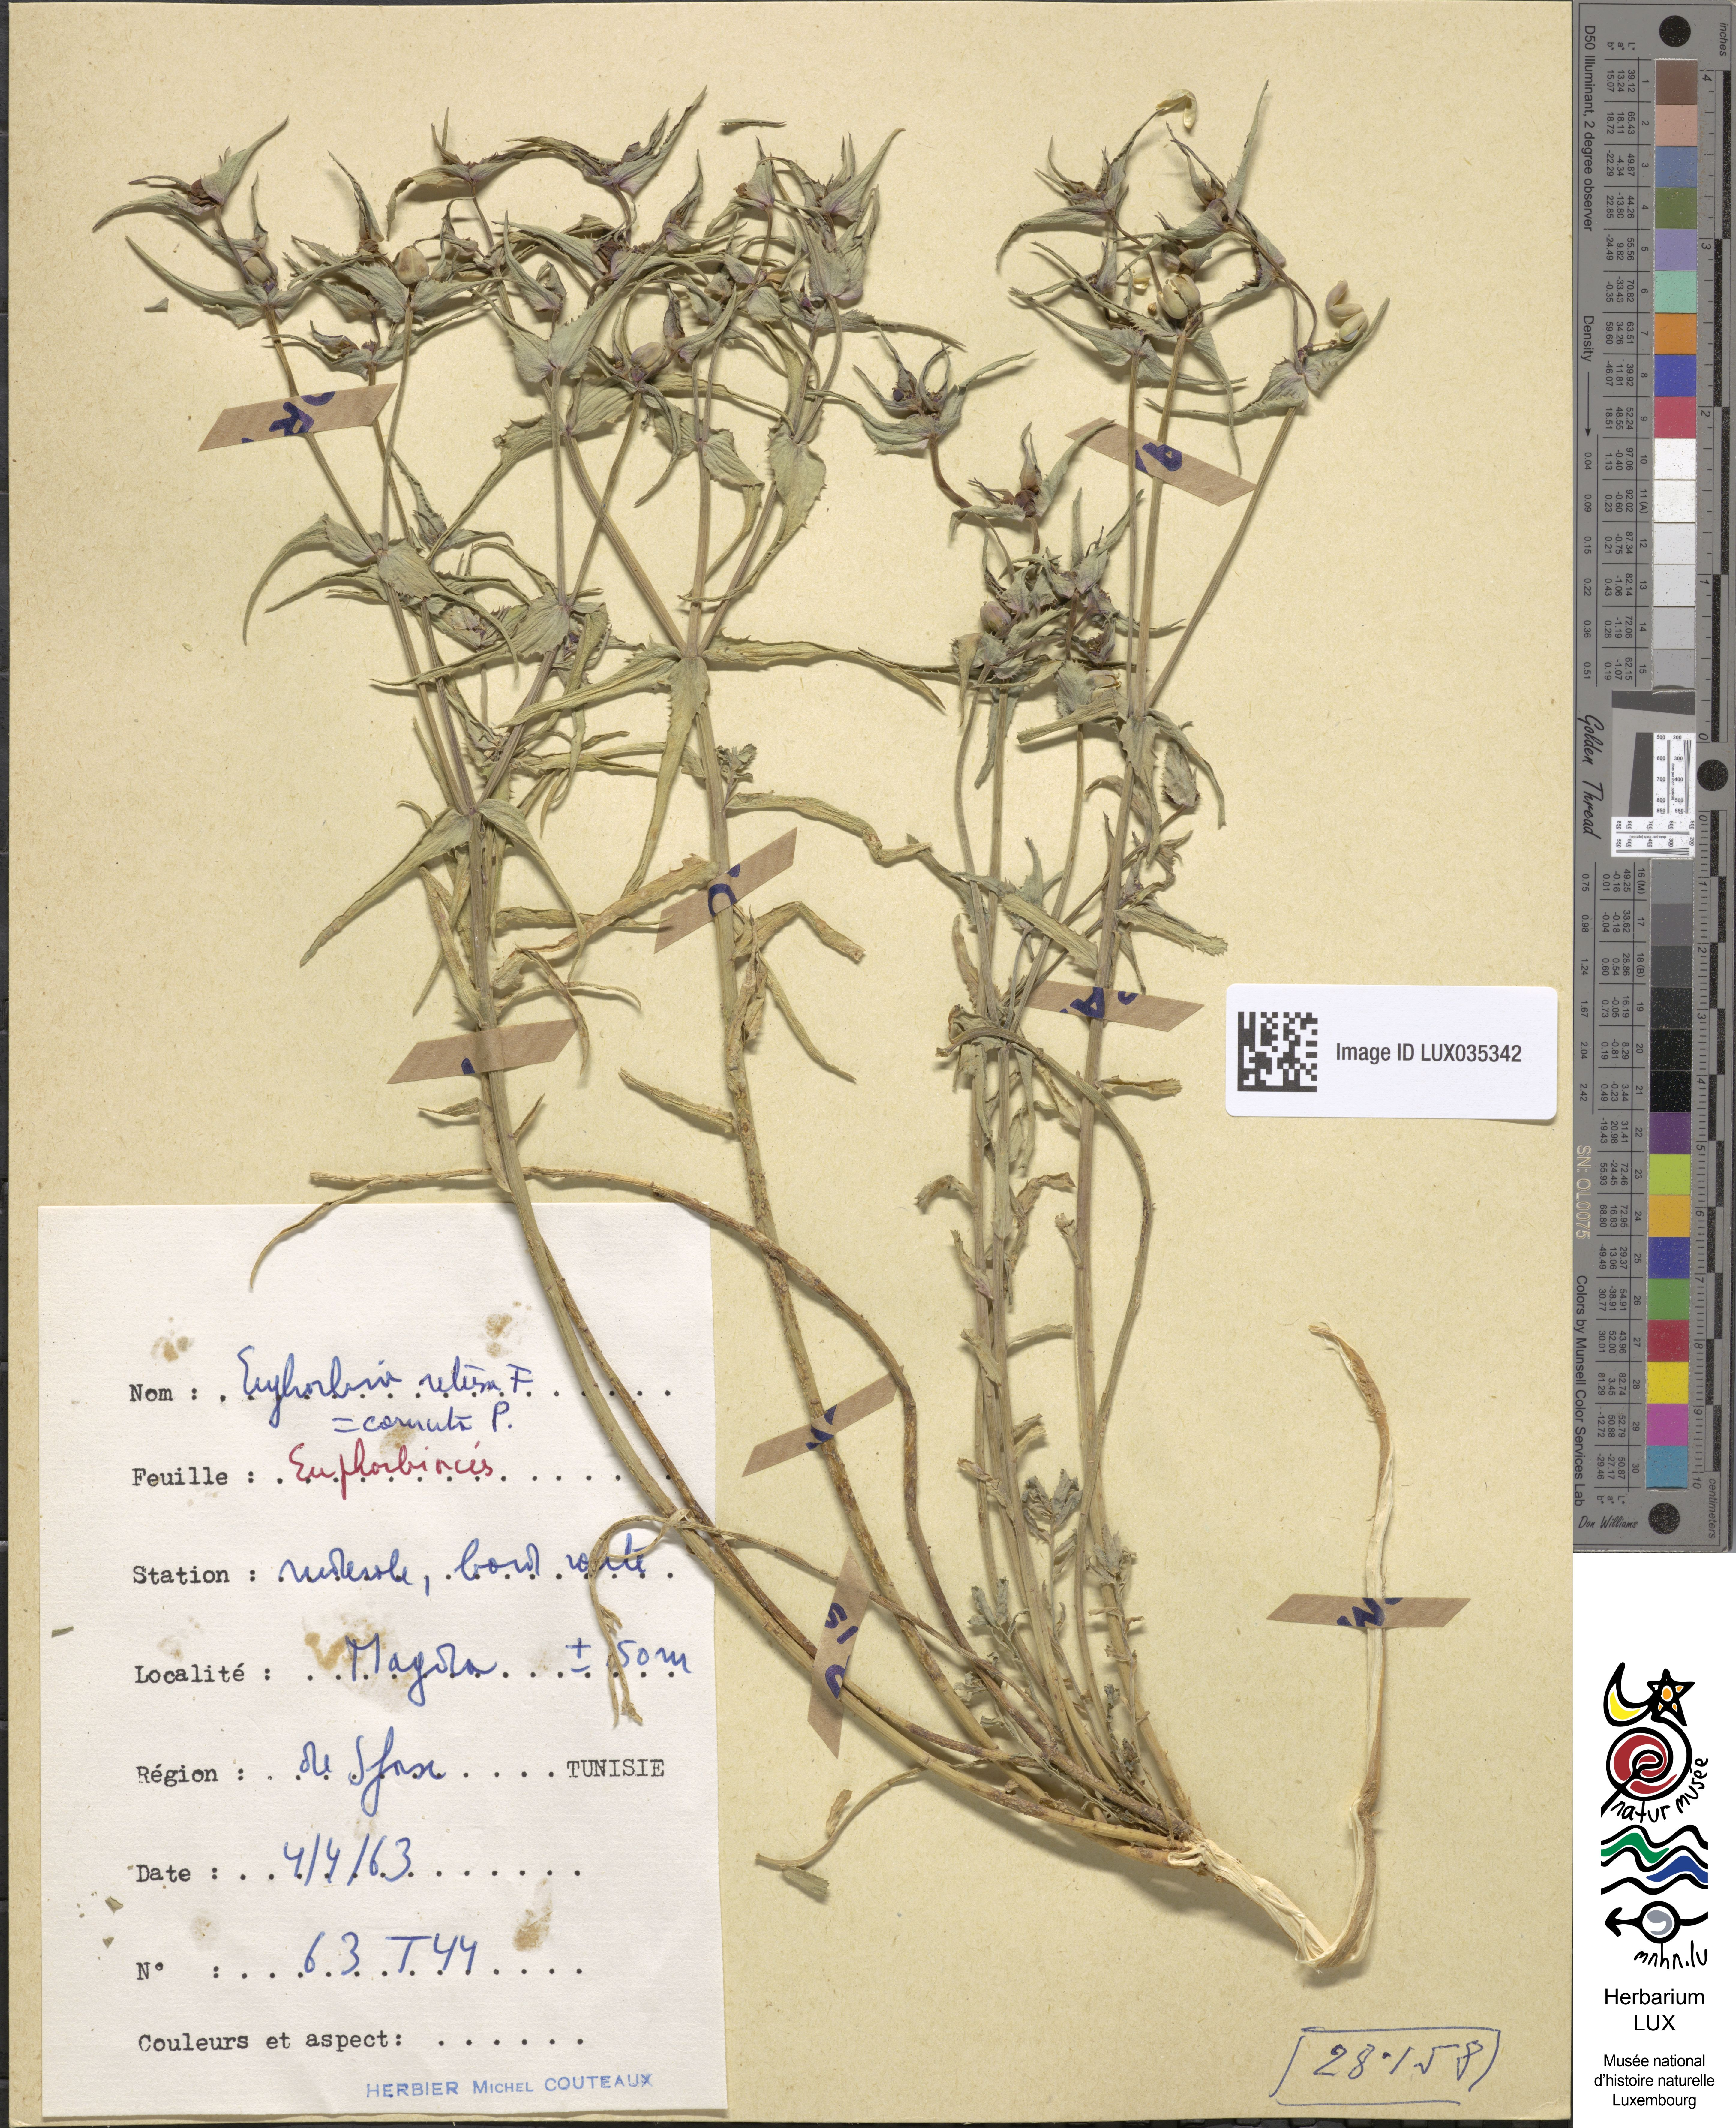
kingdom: Plantae
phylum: Tracheophyta
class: Magnoliopsida
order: Malpighiales
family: Euphorbiaceae
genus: Euphorbia
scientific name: Euphorbia sulcata
